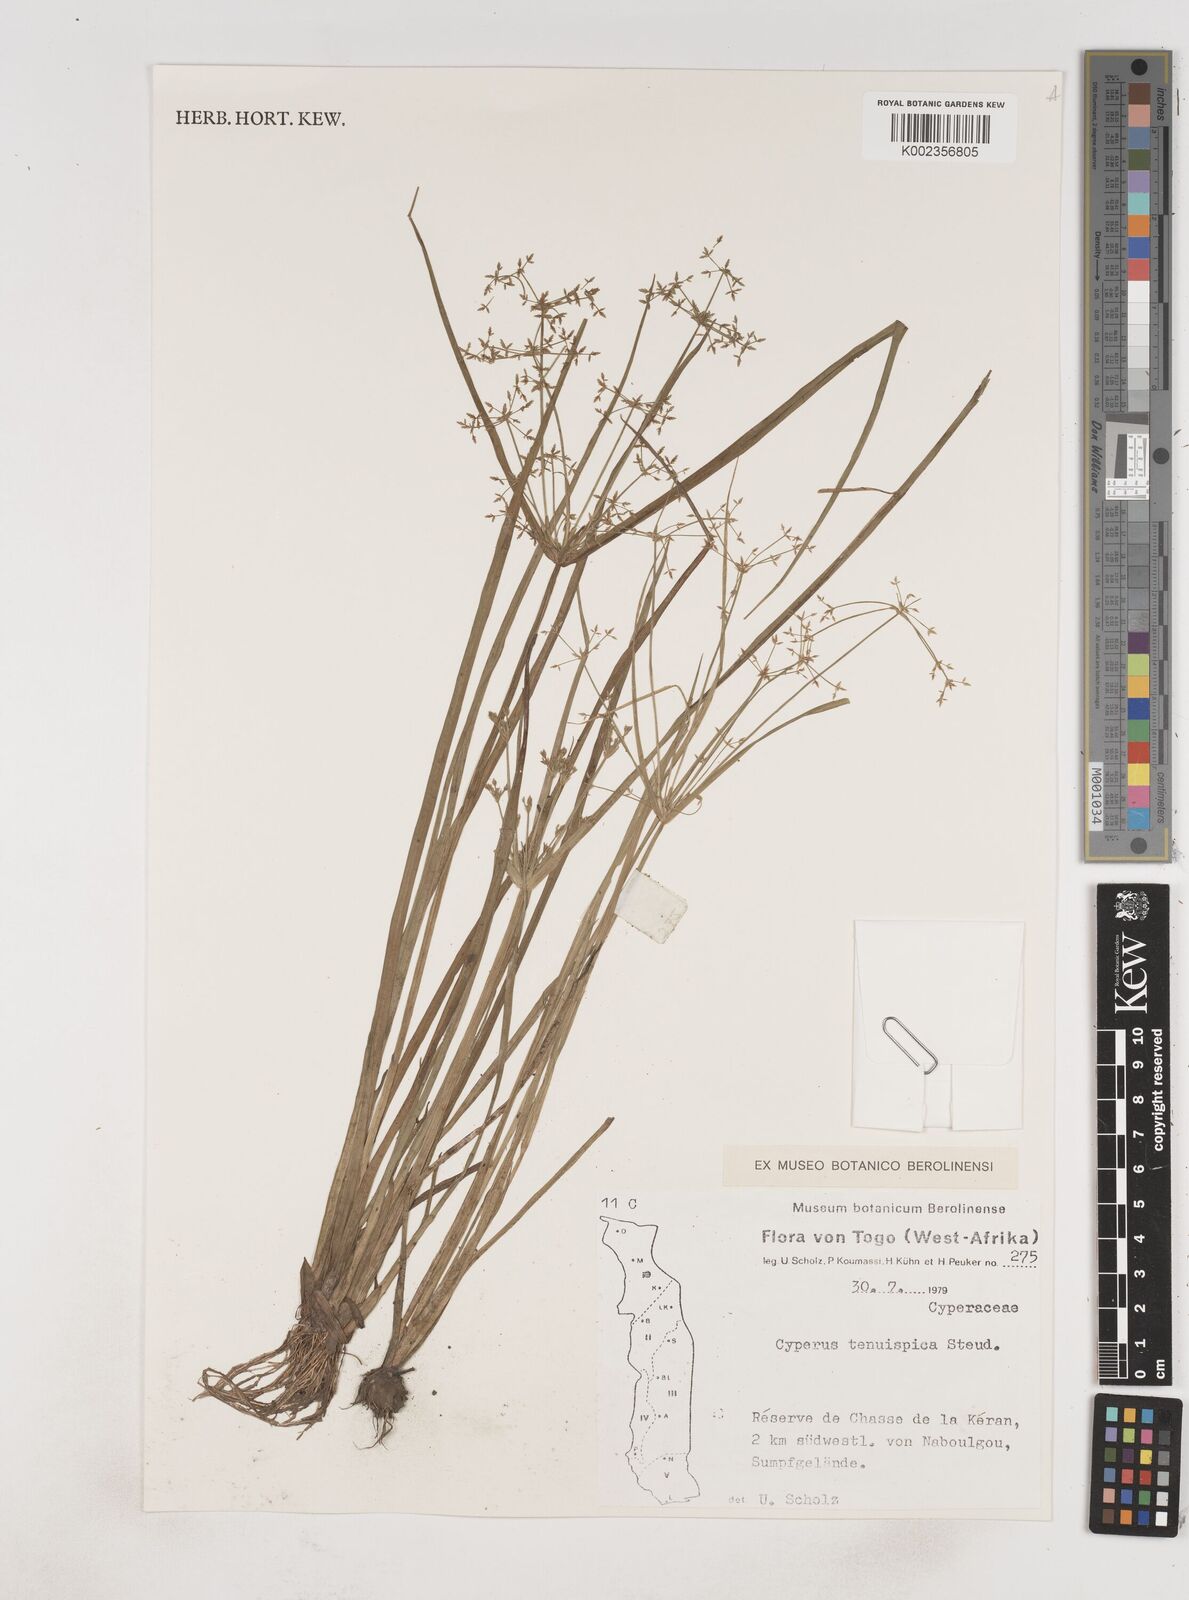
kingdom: Plantae
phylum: Tracheophyta
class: Liliopsida
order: Poales
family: Cyperaceae
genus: Cyperus
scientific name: Cyperus tenuispica
